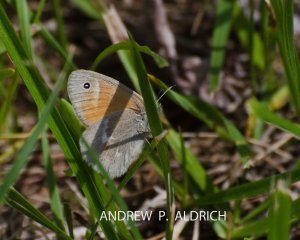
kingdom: Animalia
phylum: Arthropoda
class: Insecta
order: Lepidoptera
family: Nymphalidae
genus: Coenonympha
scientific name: Coenonympha tullia
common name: Large Heath
